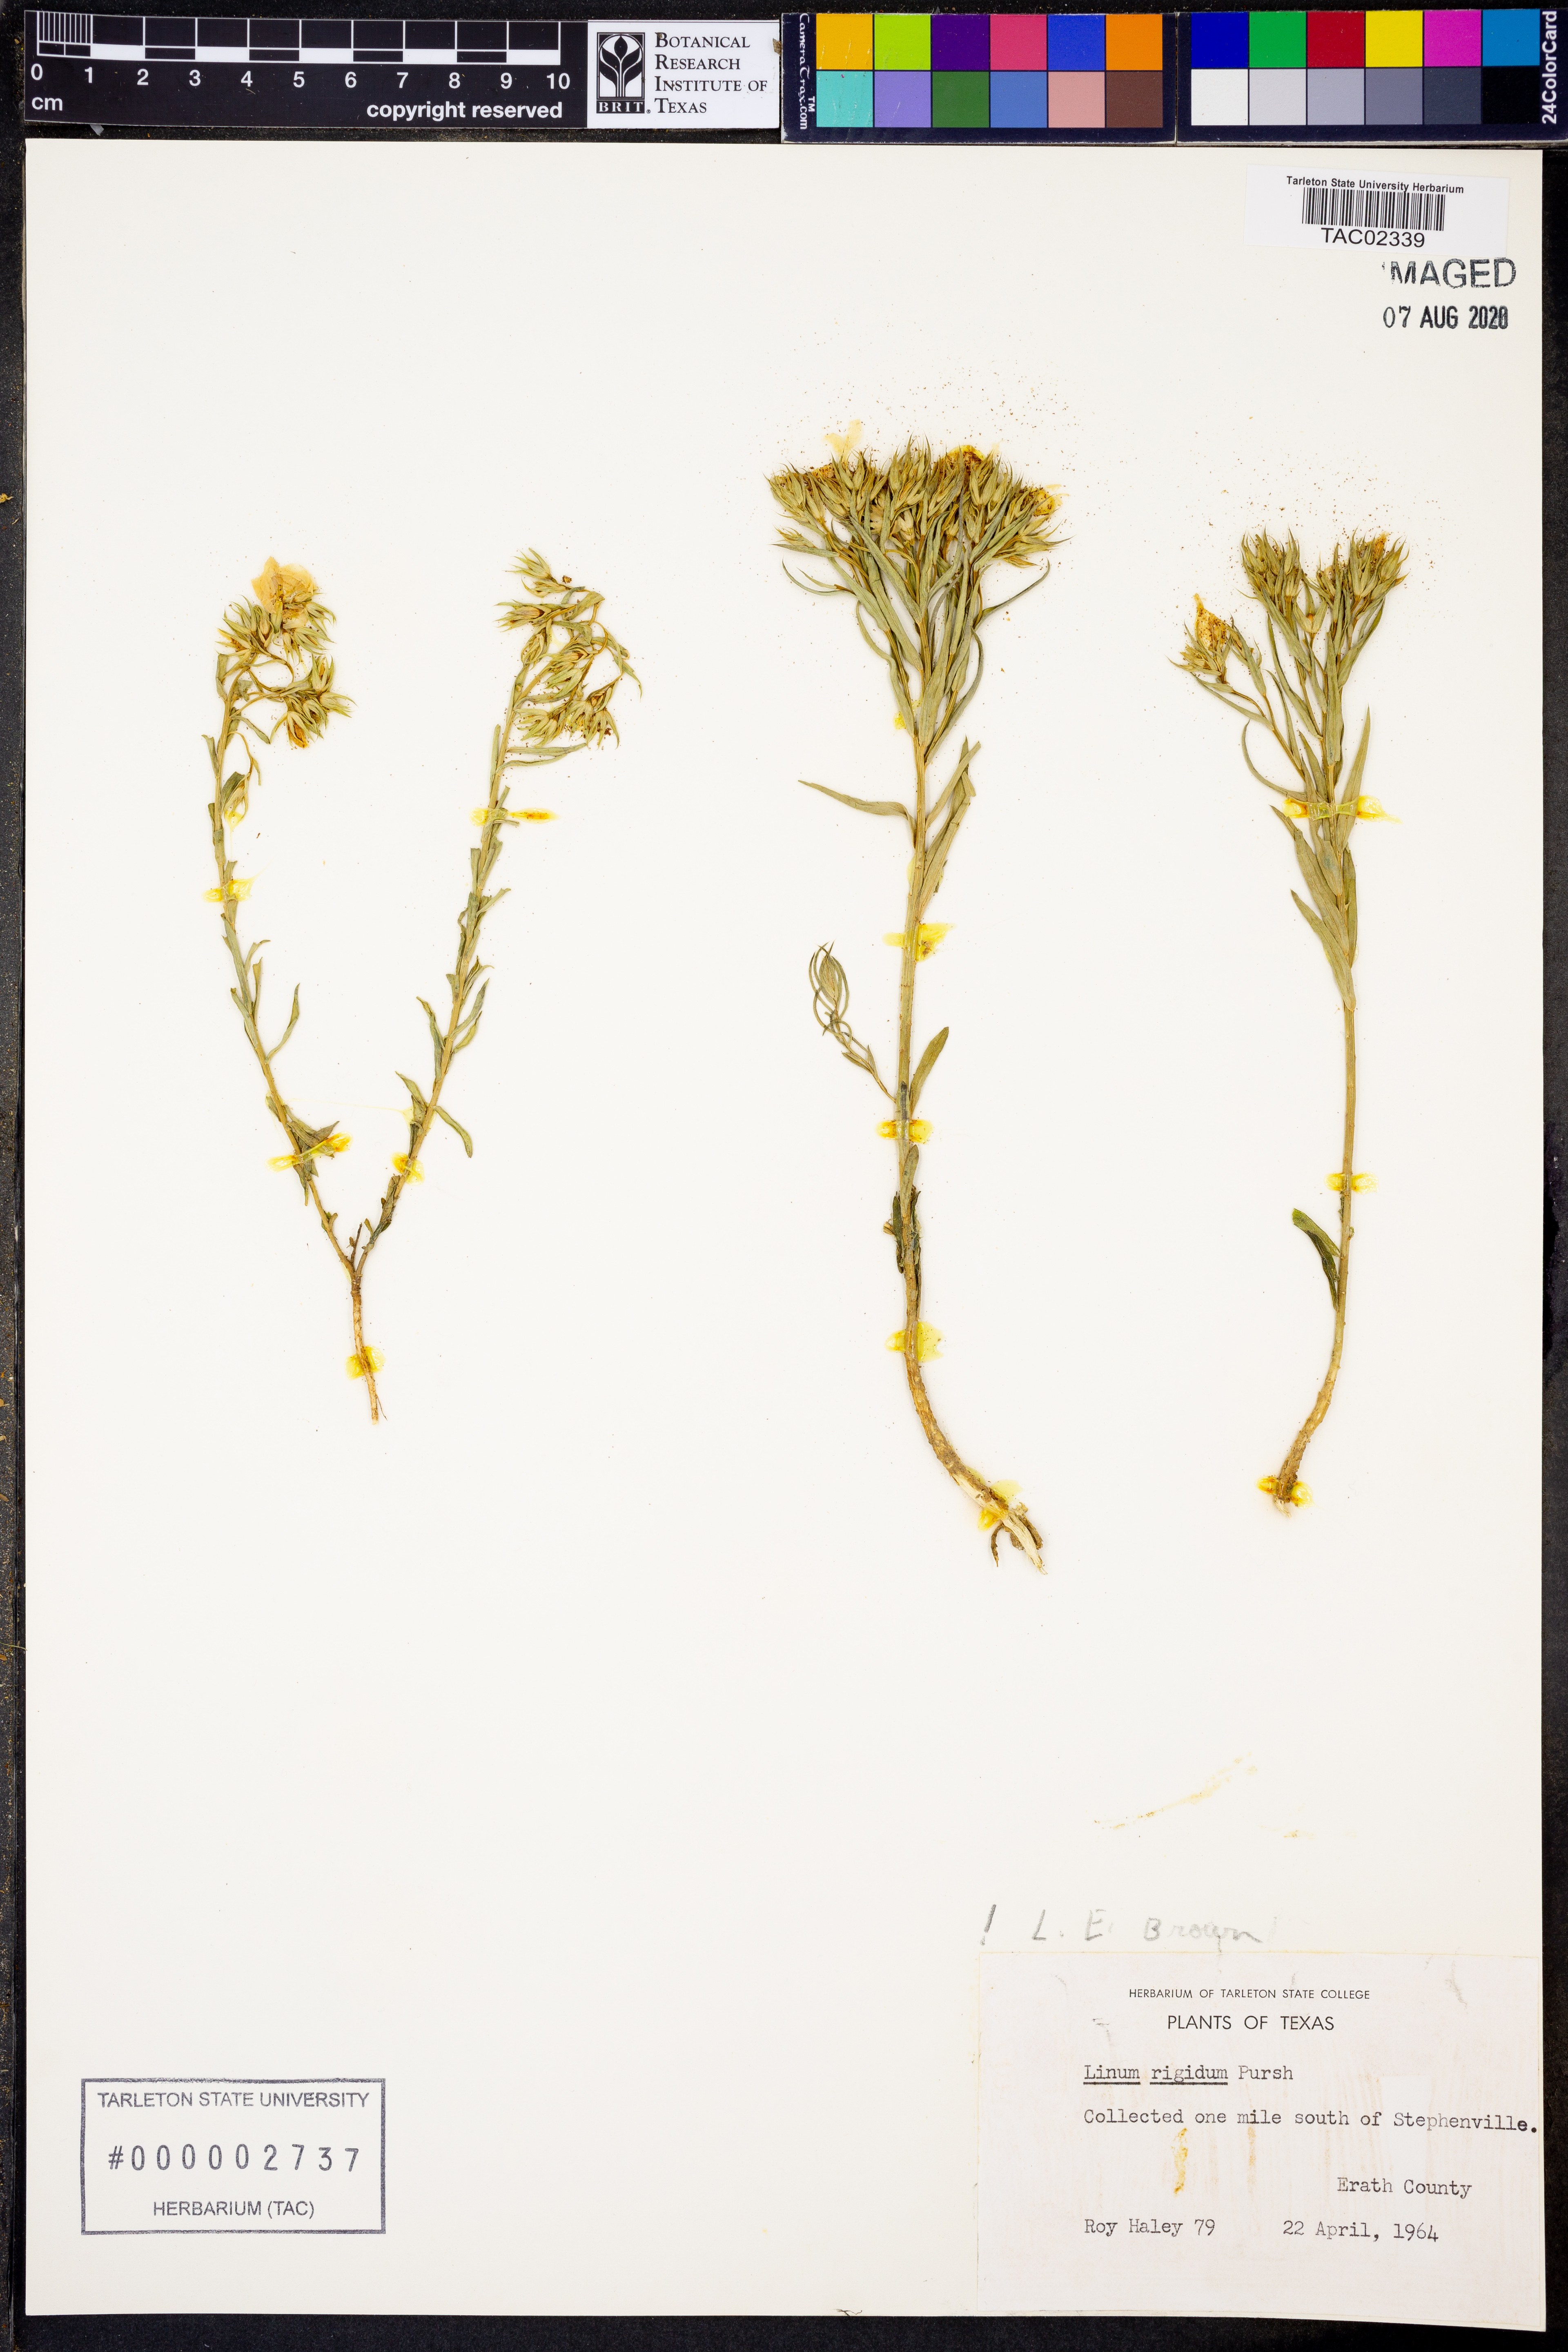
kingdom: Plantae
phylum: Tracheophyta
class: Magnoliopsida
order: Malpighiales
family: Linaceae
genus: Linum
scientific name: Linum rigidum
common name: Stiff-stem flax
